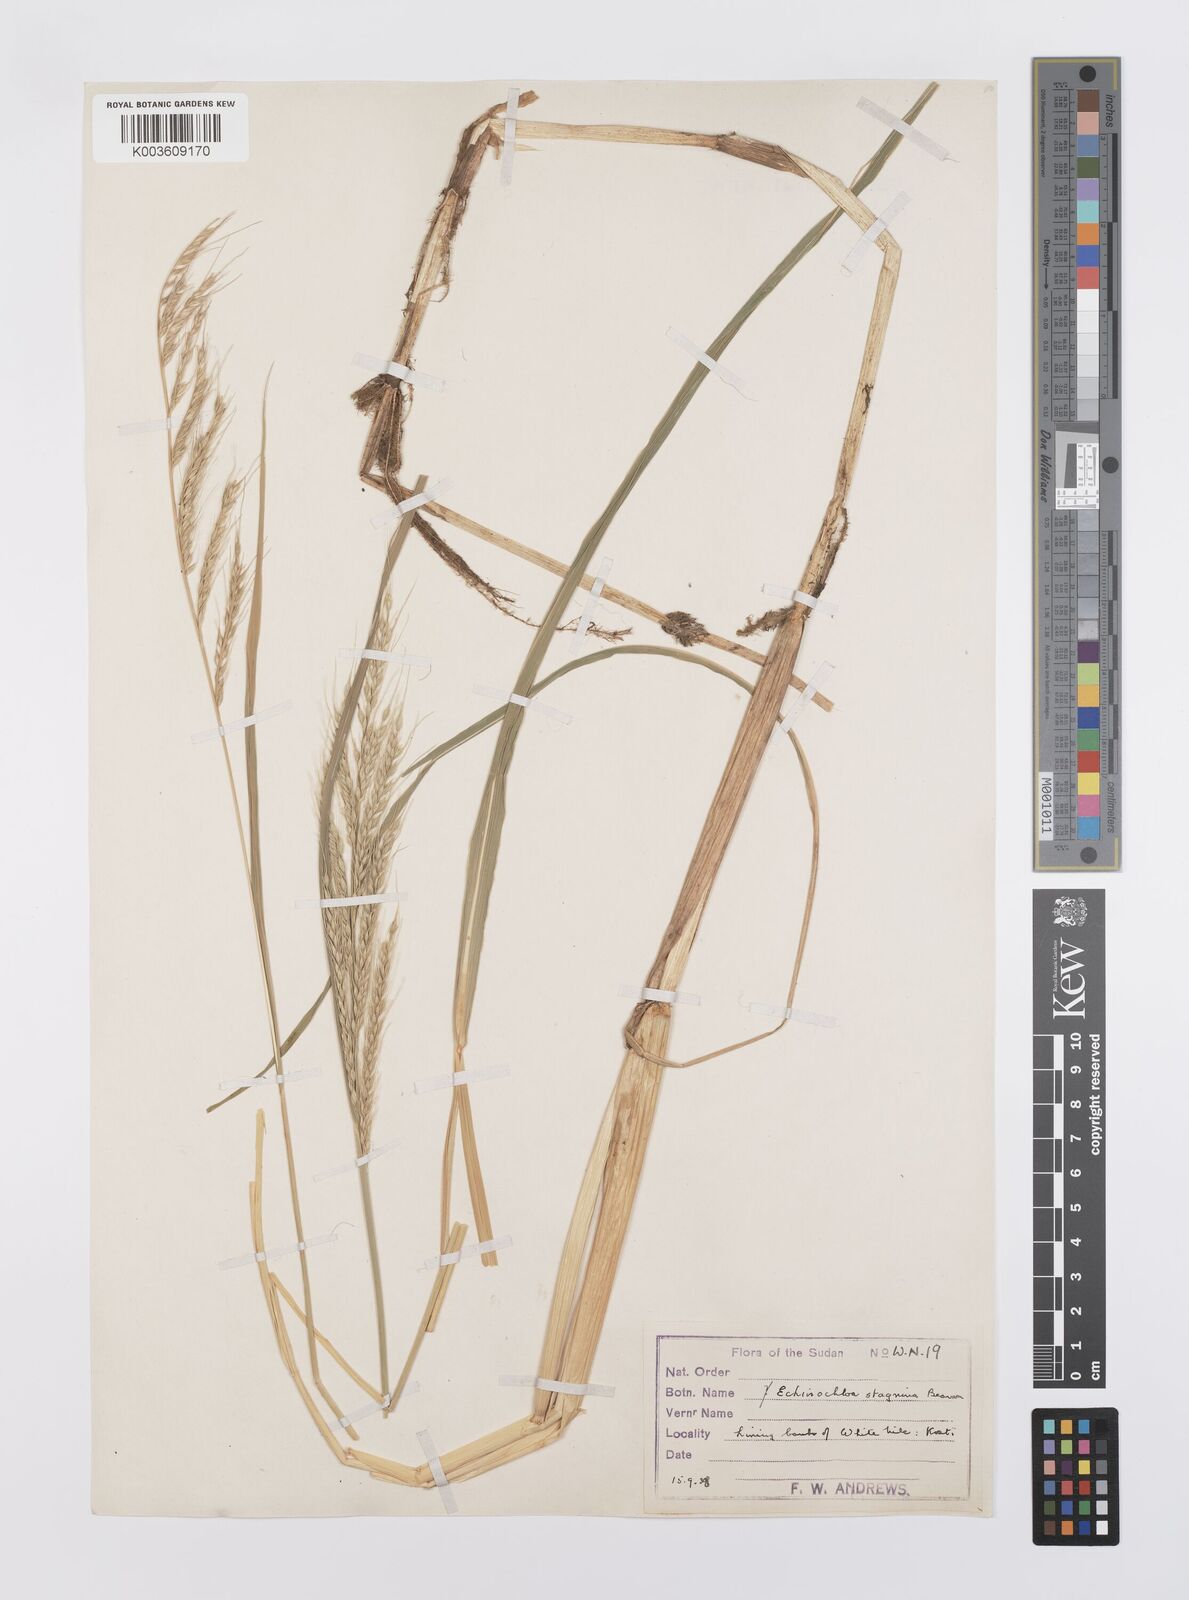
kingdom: Plantae
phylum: Tracheophyta
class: Liliopsida
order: Poales
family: Poaceae
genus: Echinochloa
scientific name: Echinochloa stagnina
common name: Burgu grass
